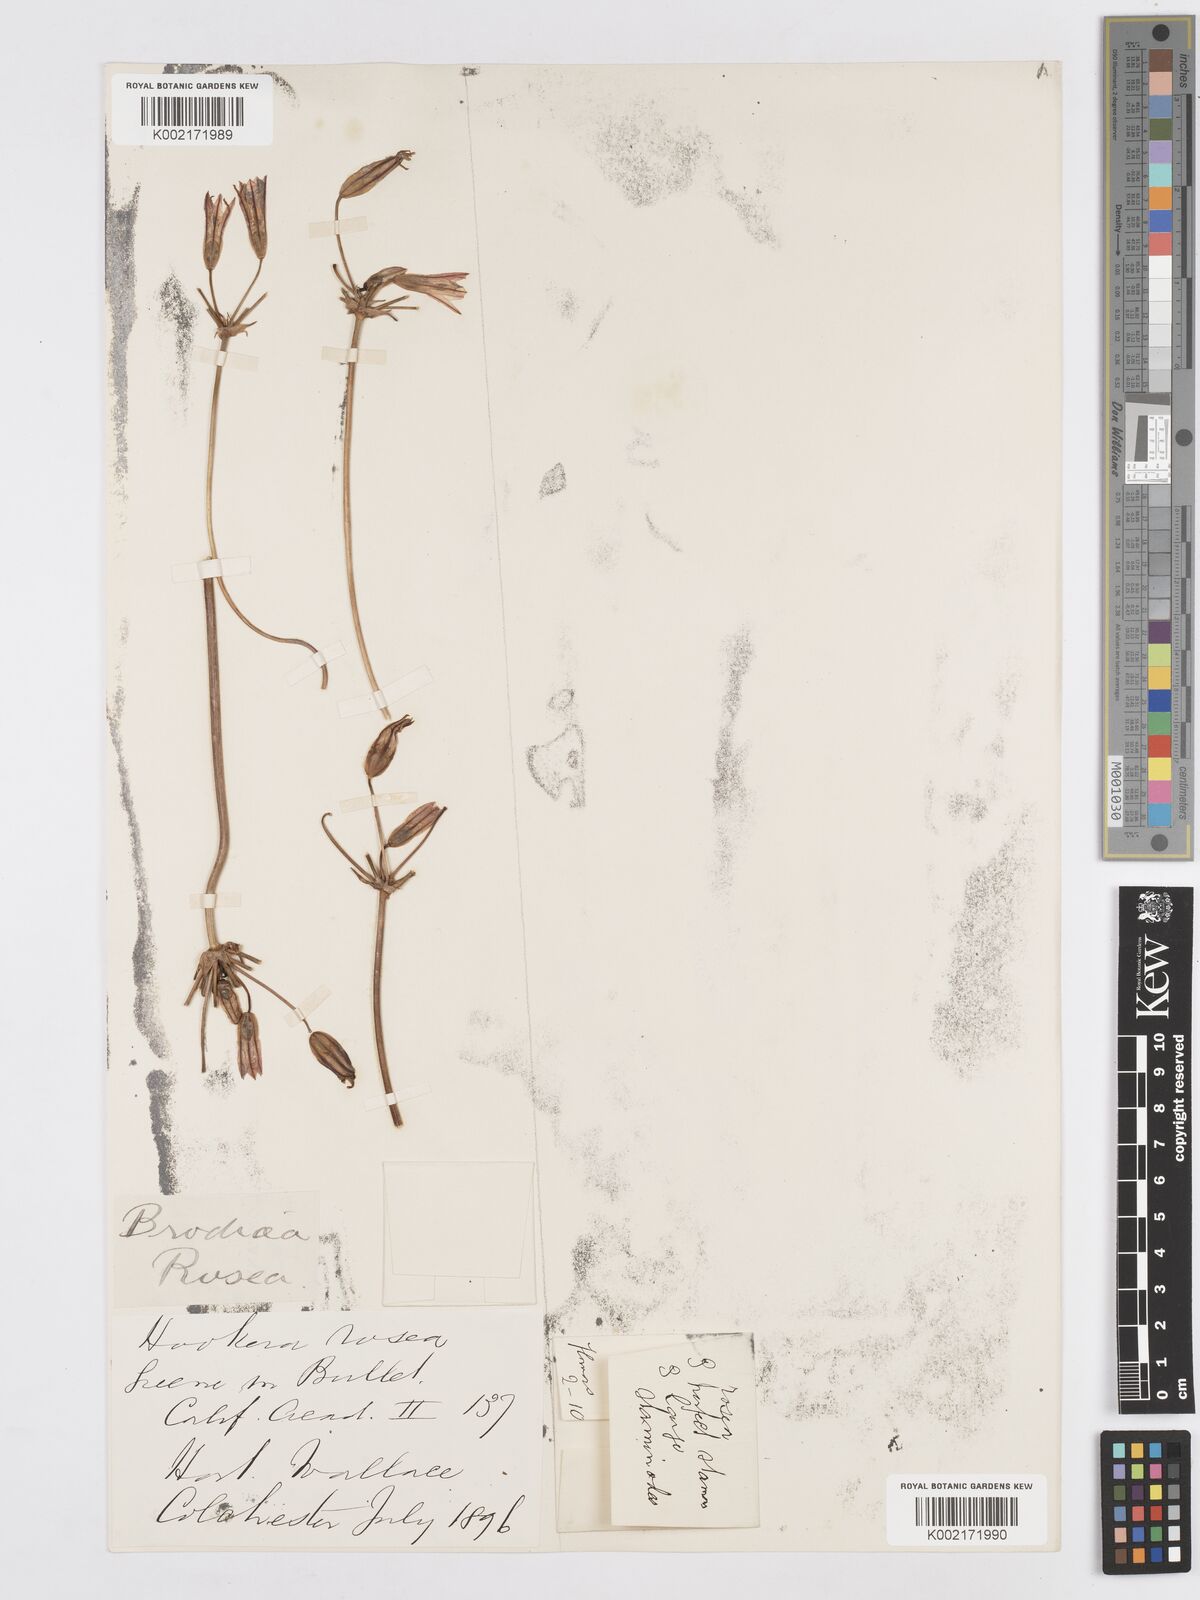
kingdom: Plantae
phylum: Tracheophyta
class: Liliopsida
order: Asparagales
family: Asparagaceae
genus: Brodiaea
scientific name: Brodiaea coronaria
